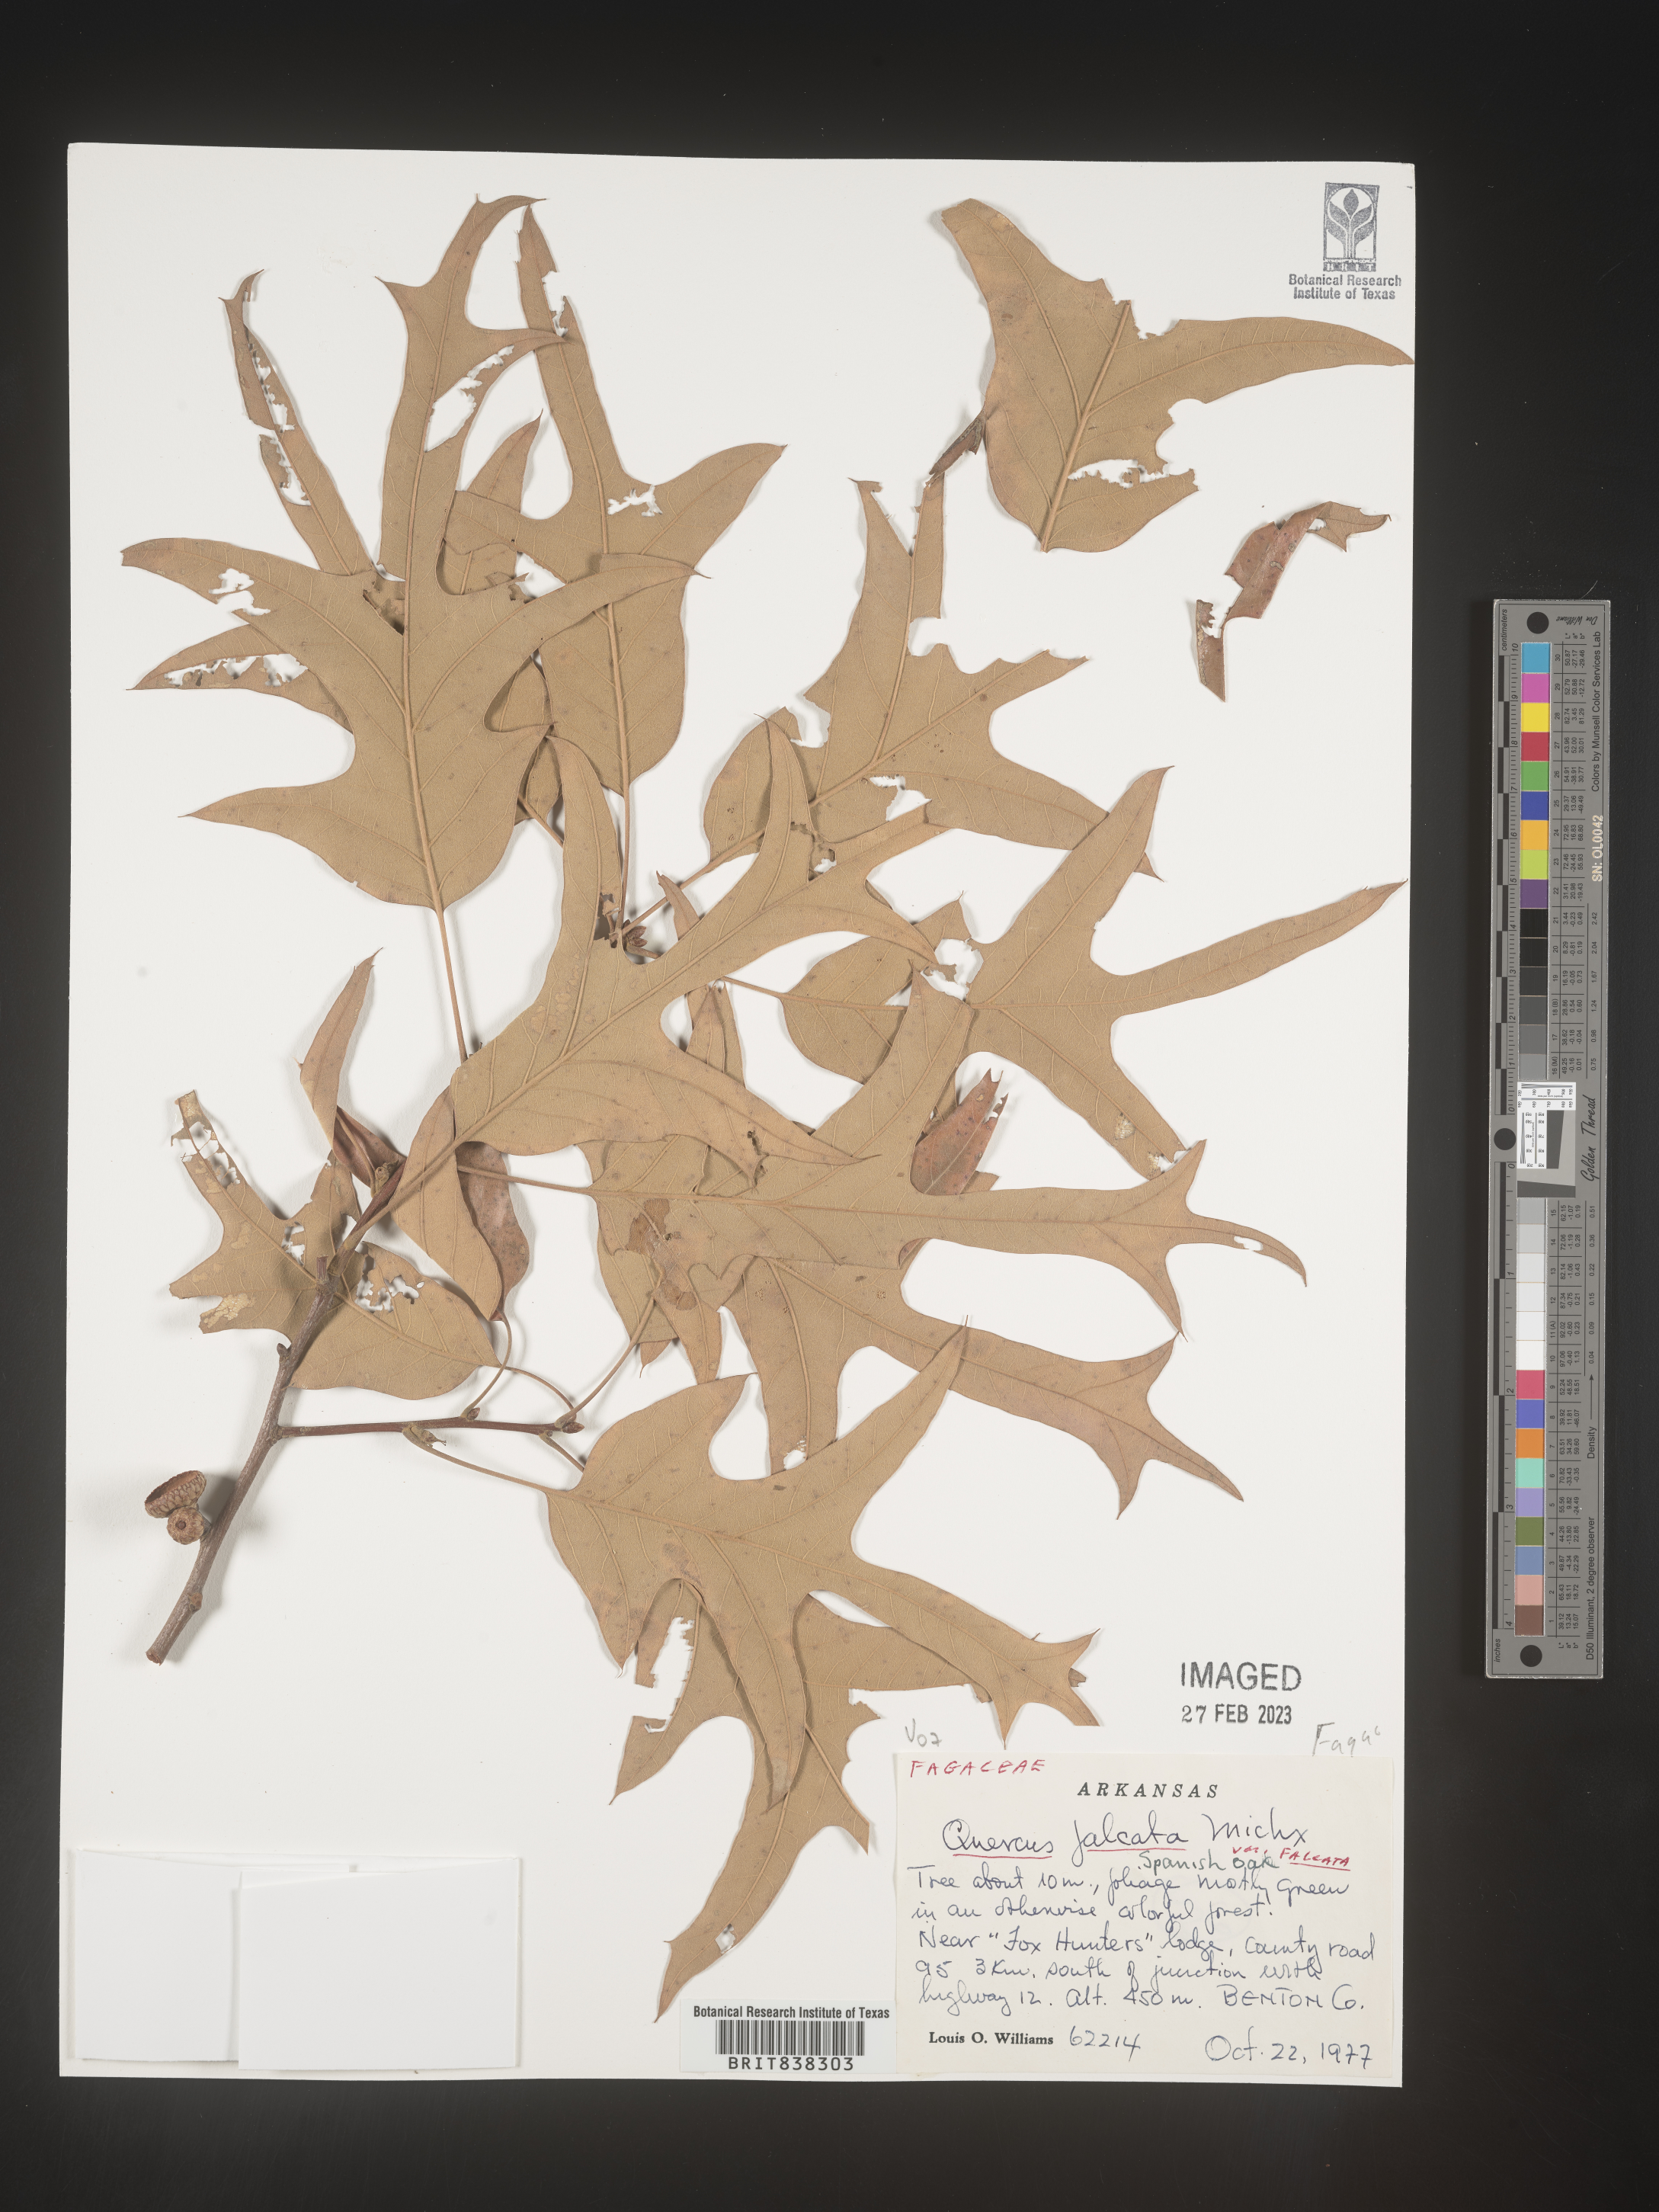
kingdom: Plantae
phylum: Tracheophyta
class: Magnoliopsida
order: Fagales
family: Fagaceae
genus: Quercus
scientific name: Quercus falcata
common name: Southern red oak
